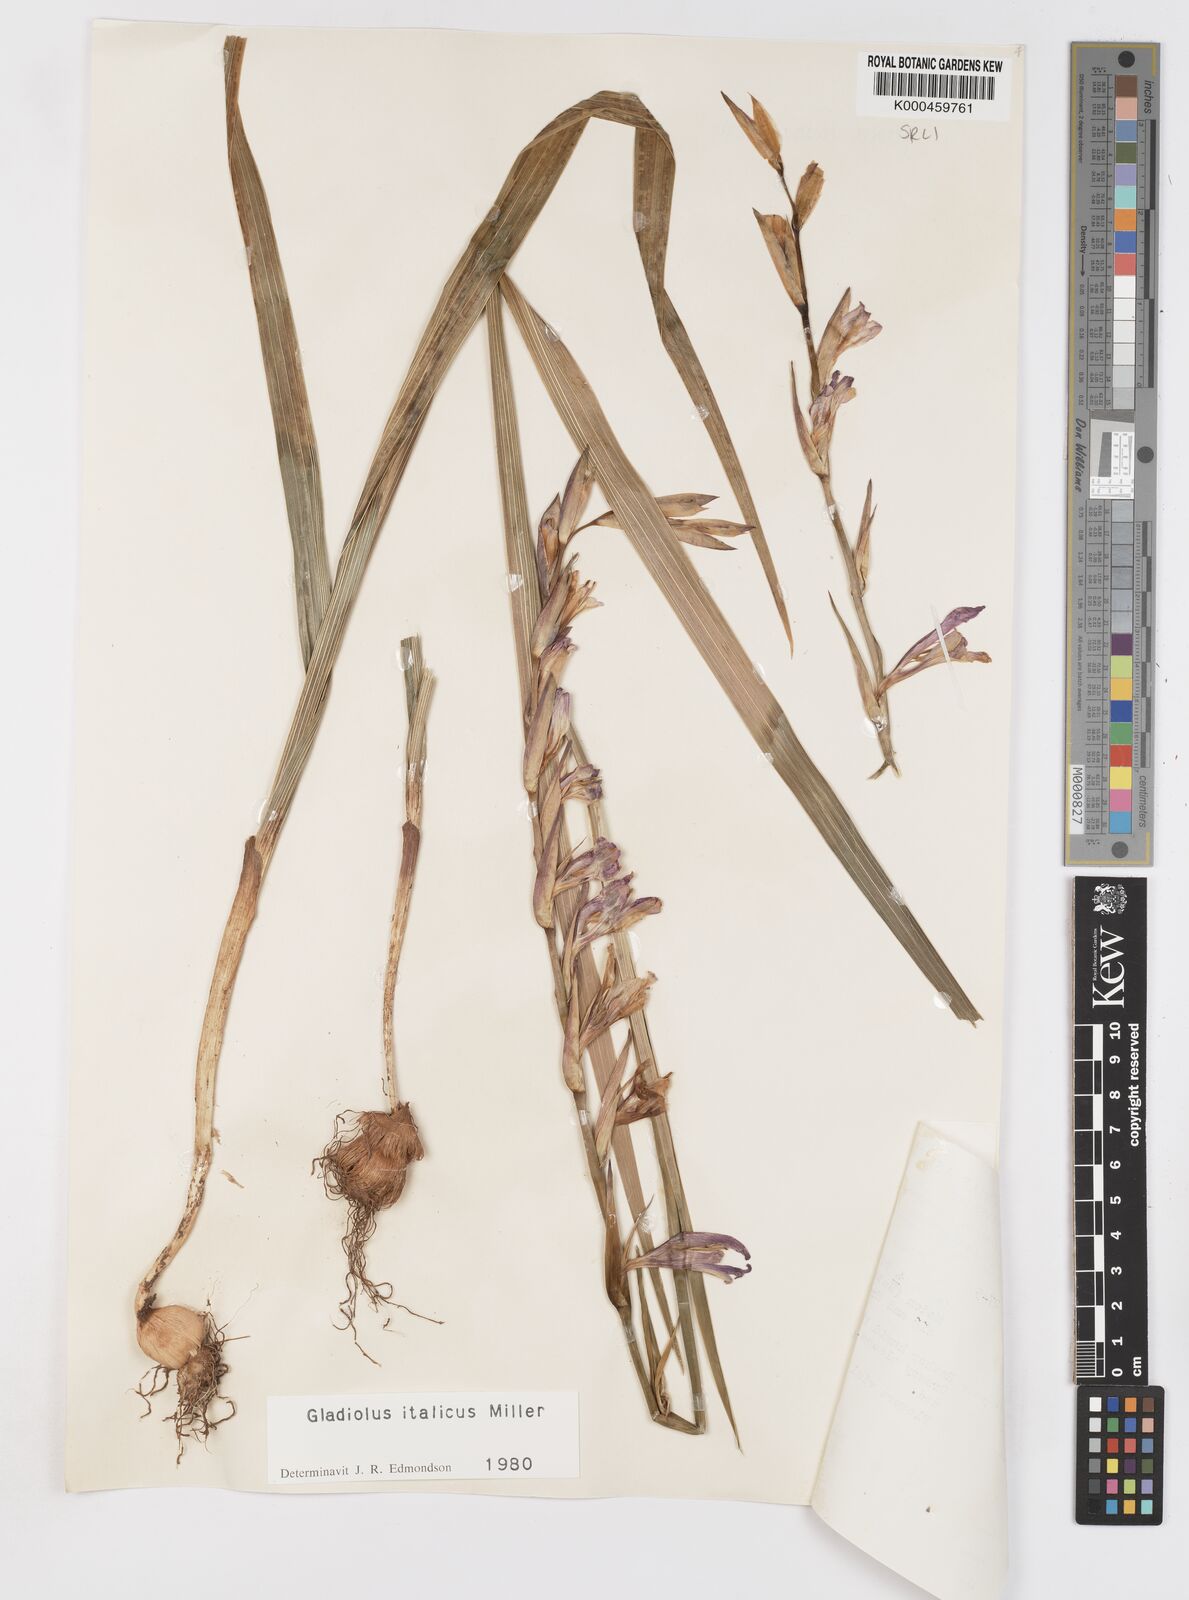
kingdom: Plantae
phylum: Tracheophyta
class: Liliopsida
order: Asparagales
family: Iridaceae
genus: Gladiolus
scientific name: Gladiolus italicus
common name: Field gladiolus
